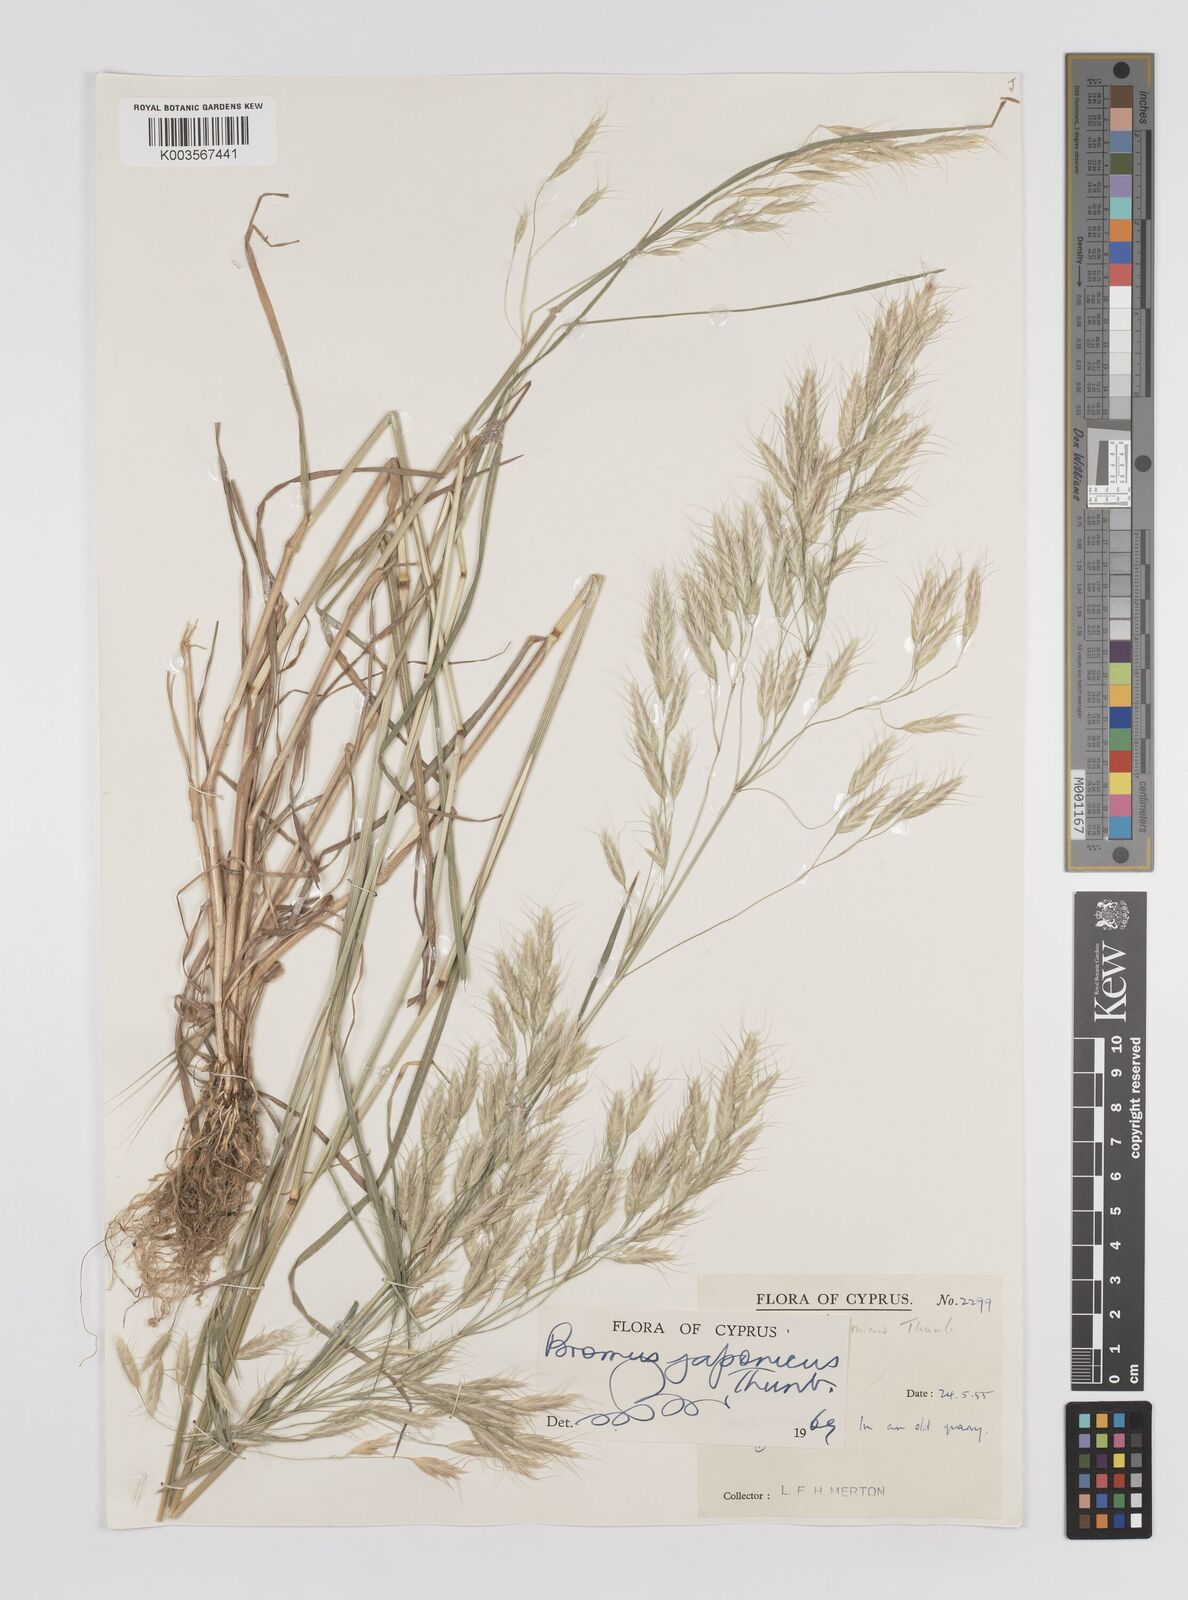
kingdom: Plantae
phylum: Tracheophyta
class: Liliopsida
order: Poales
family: Poaceae
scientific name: Poaceae
